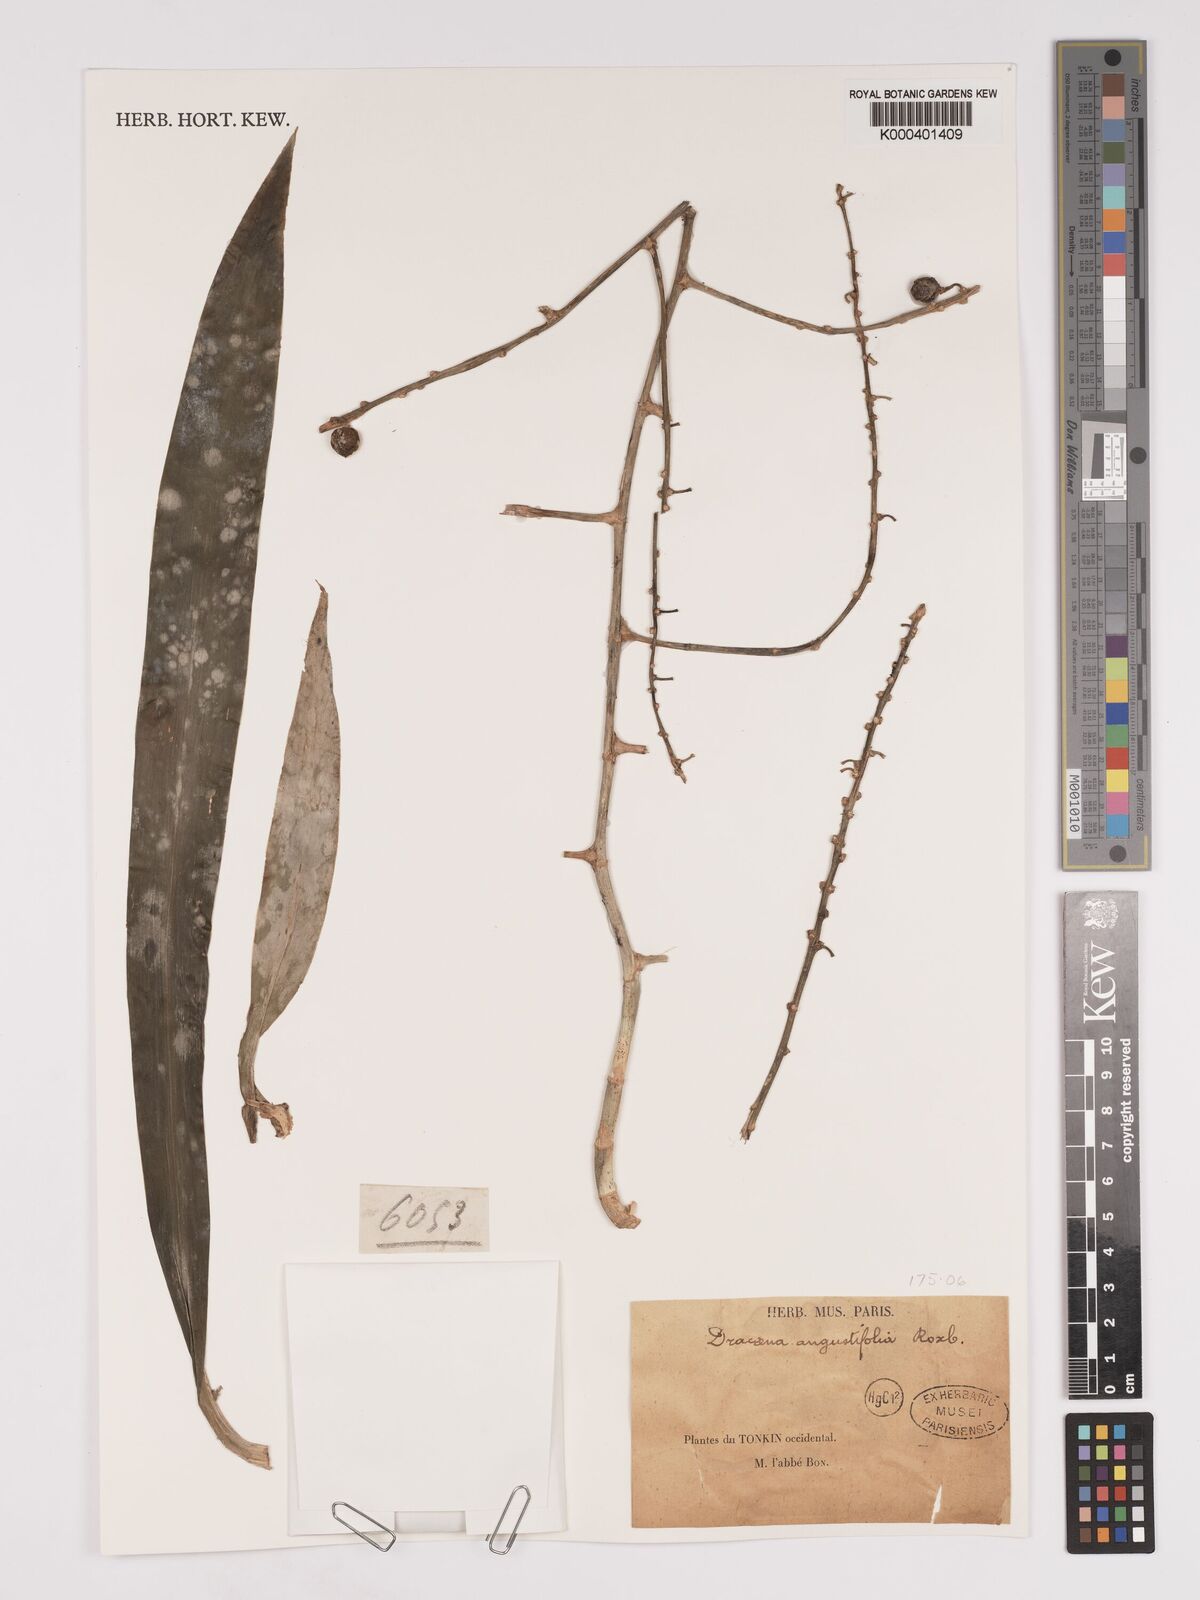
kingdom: Plantae
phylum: Tracheophyta
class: Liliopsida
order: Asparagales
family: Asparagaceae
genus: Dracaena
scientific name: Dracaena angustifolia
